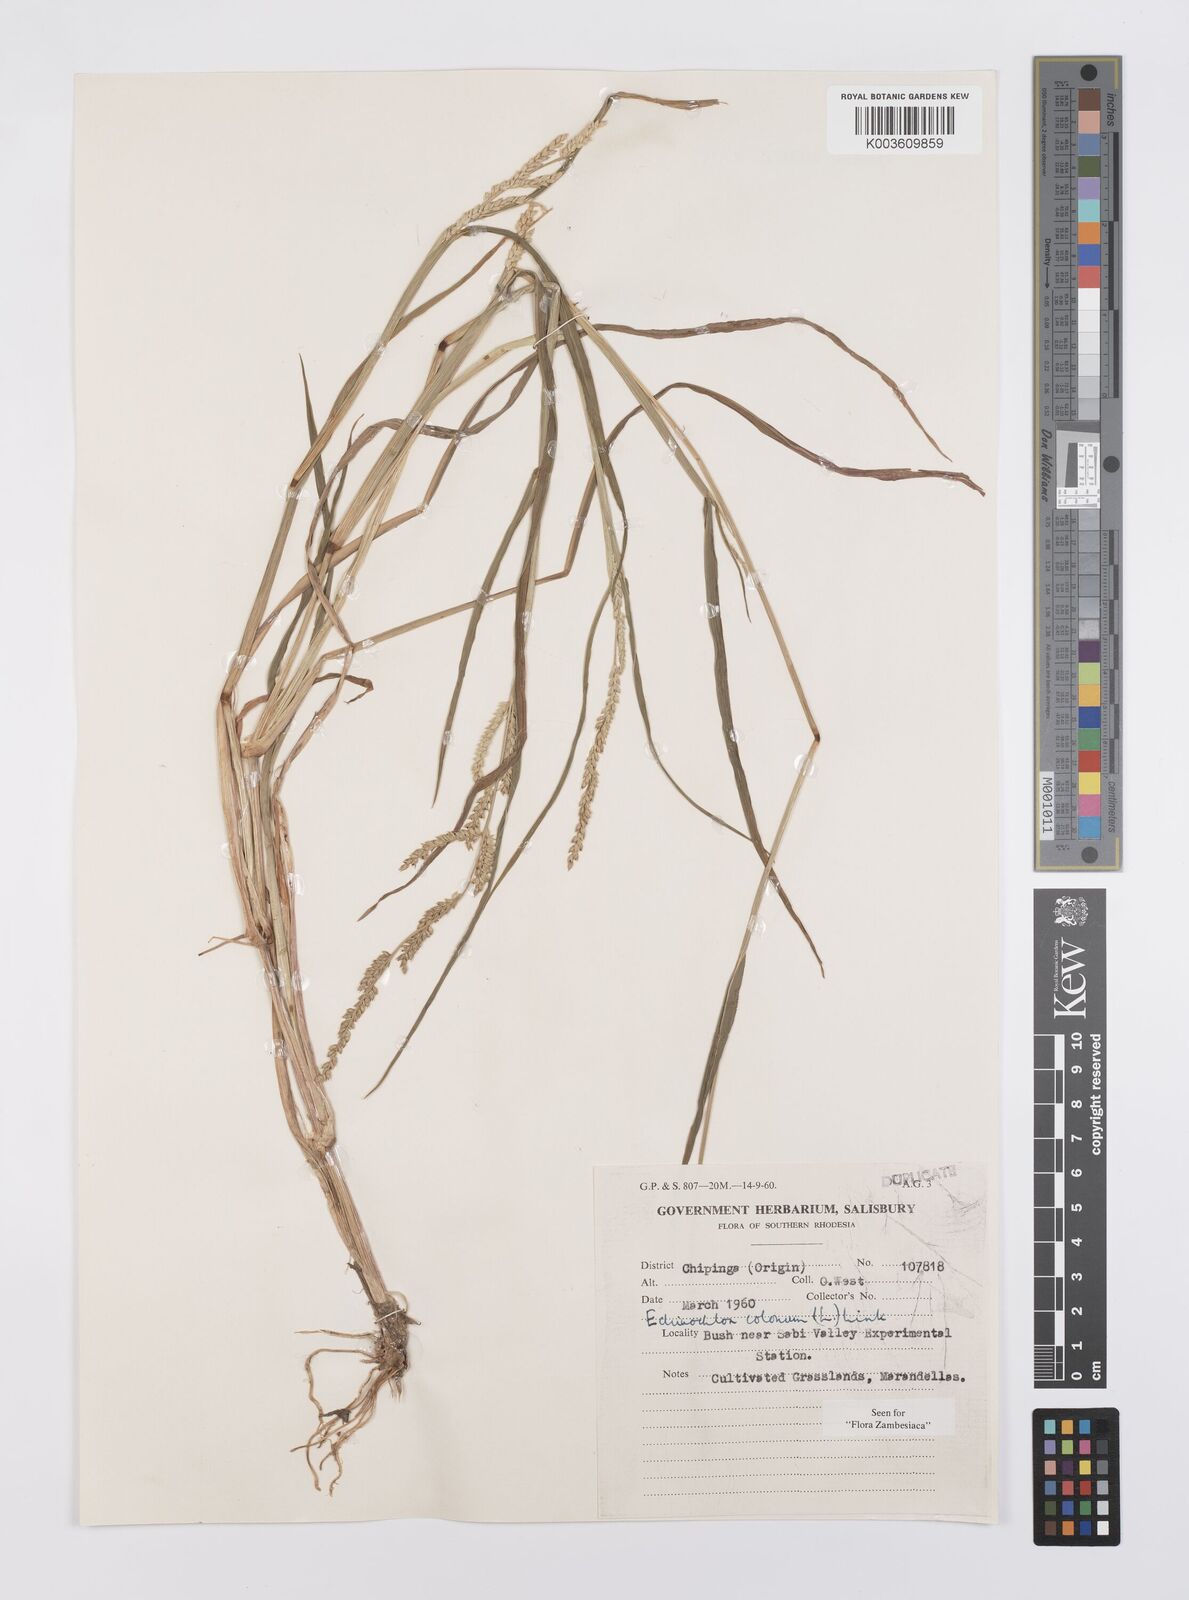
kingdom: Plantae
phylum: Tracheophyta
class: Liliopsida
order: Poales
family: Poaceae
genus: Echinochloa
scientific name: Echinochloa colonum
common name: Jungle rice
